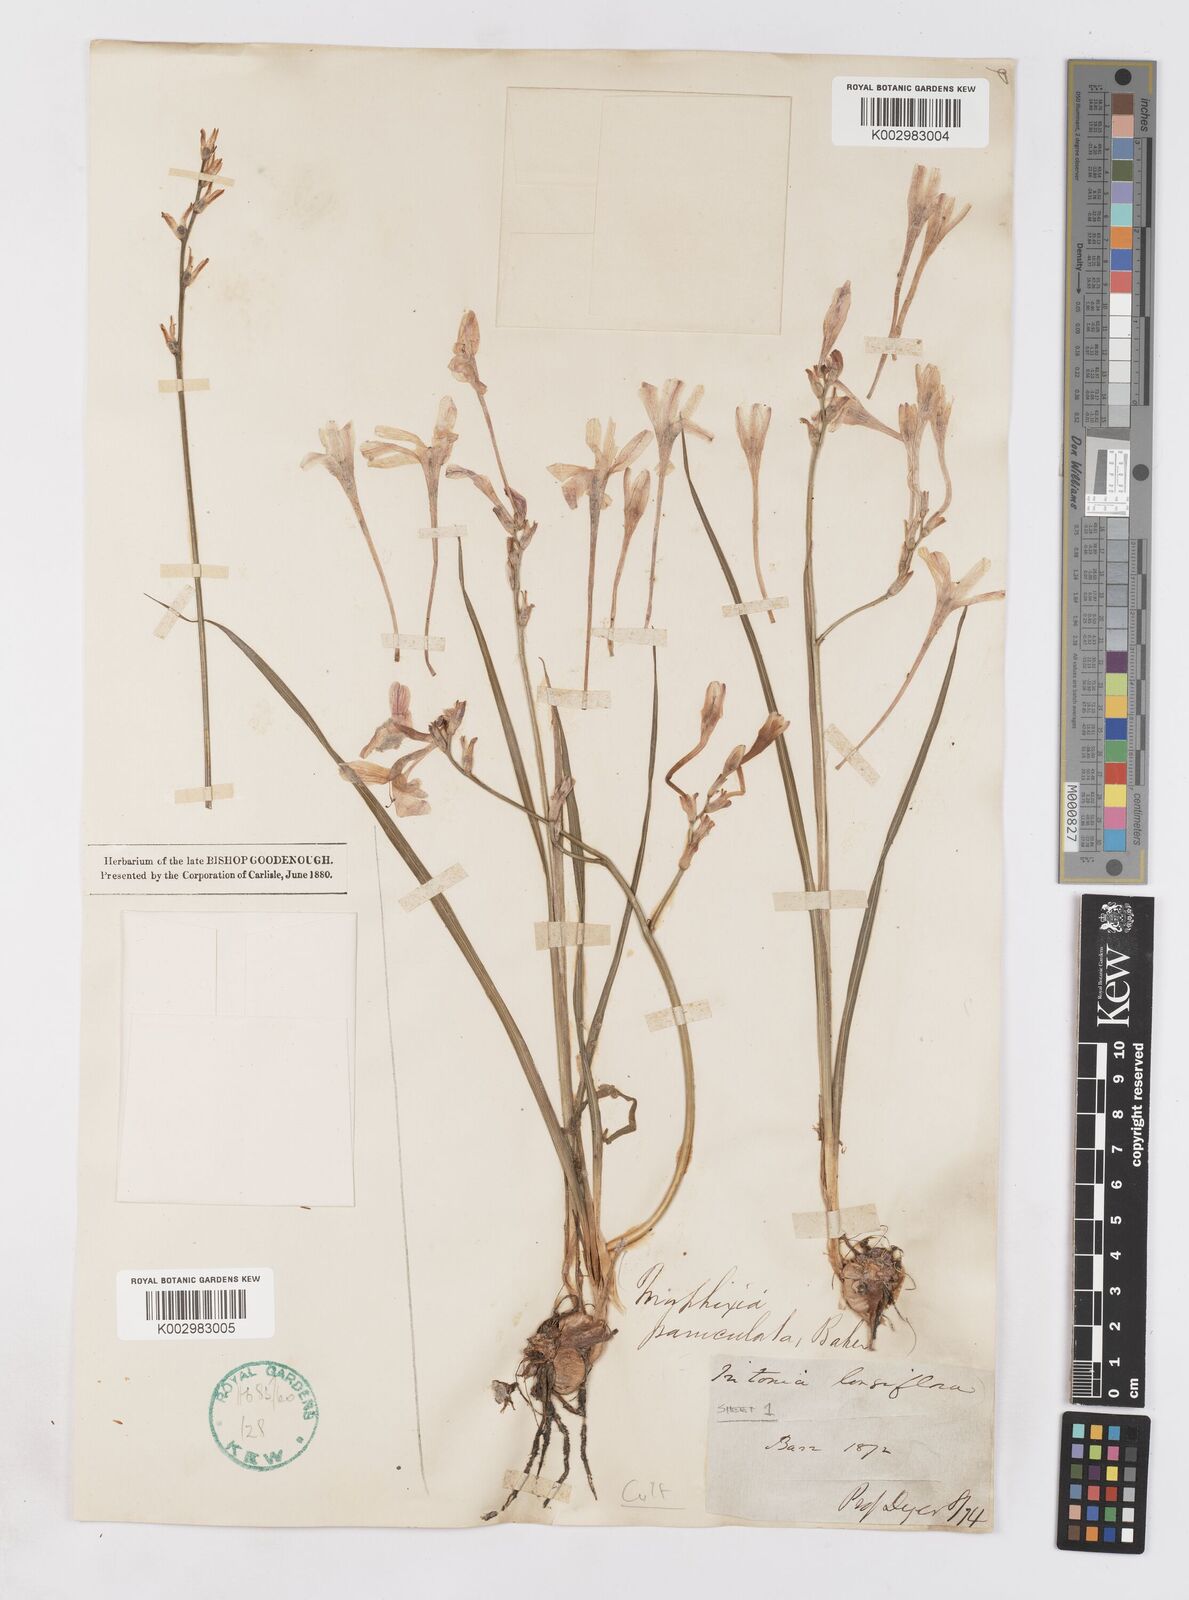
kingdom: Plantae
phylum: Tracheophyta
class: Liliopsida
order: Asparagales
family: Iridaceae
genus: Ixia
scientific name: Ixia paniculata
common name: Tubular corn-lily
